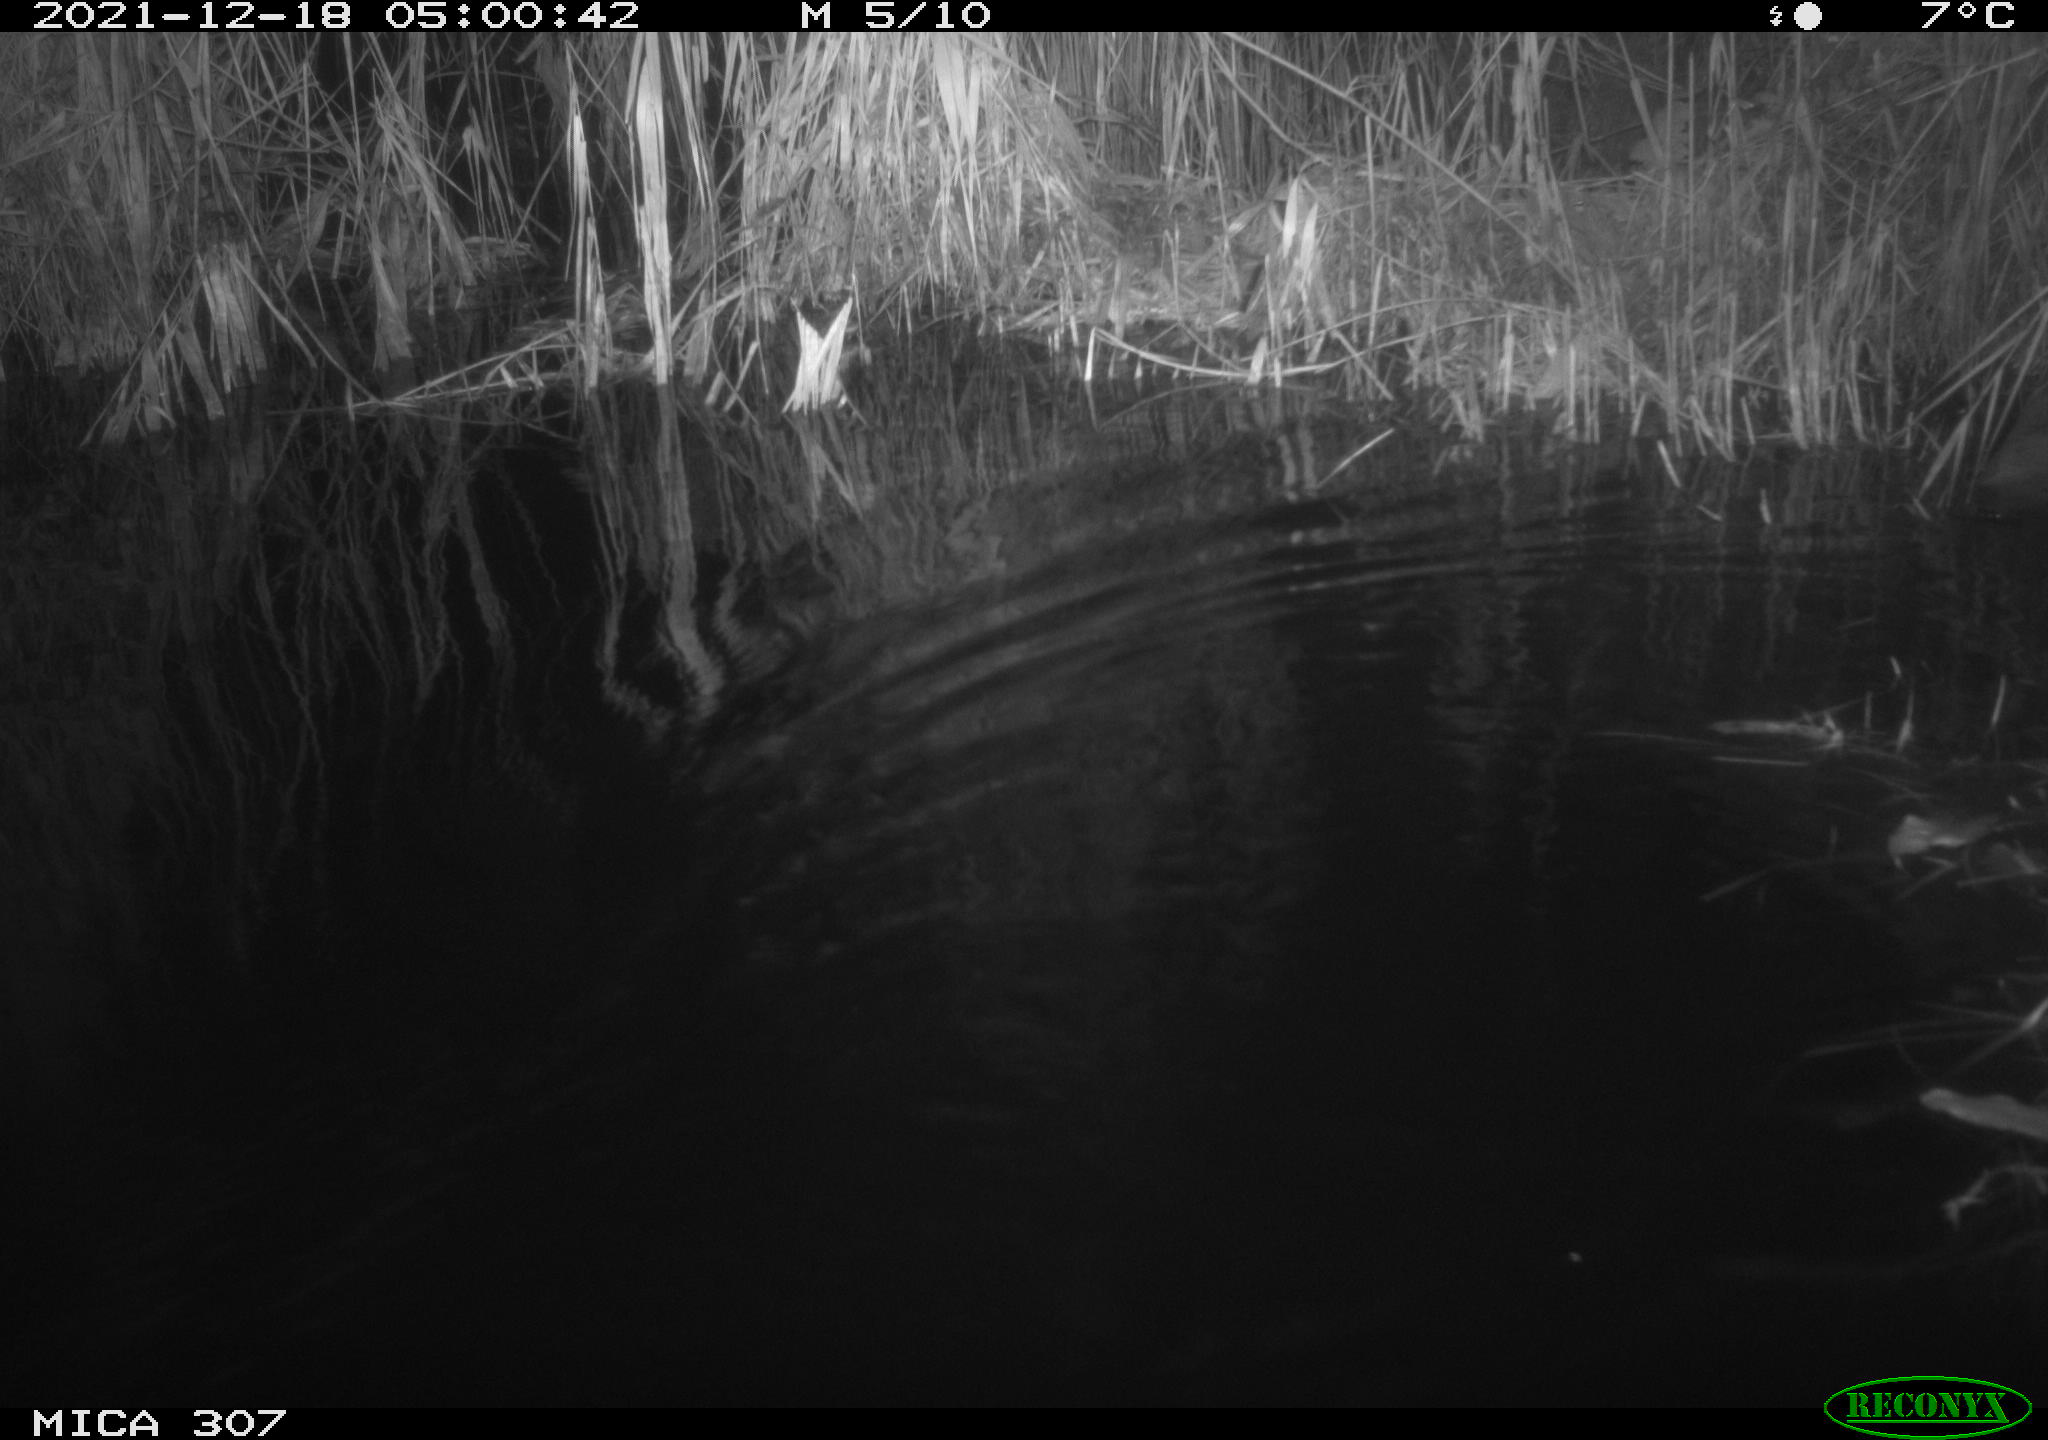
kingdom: Animalia
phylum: Chordata
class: Mammalia
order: Rodentia
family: Muridae
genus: Rattus
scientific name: Rattus norvegicus
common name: Brown rat
